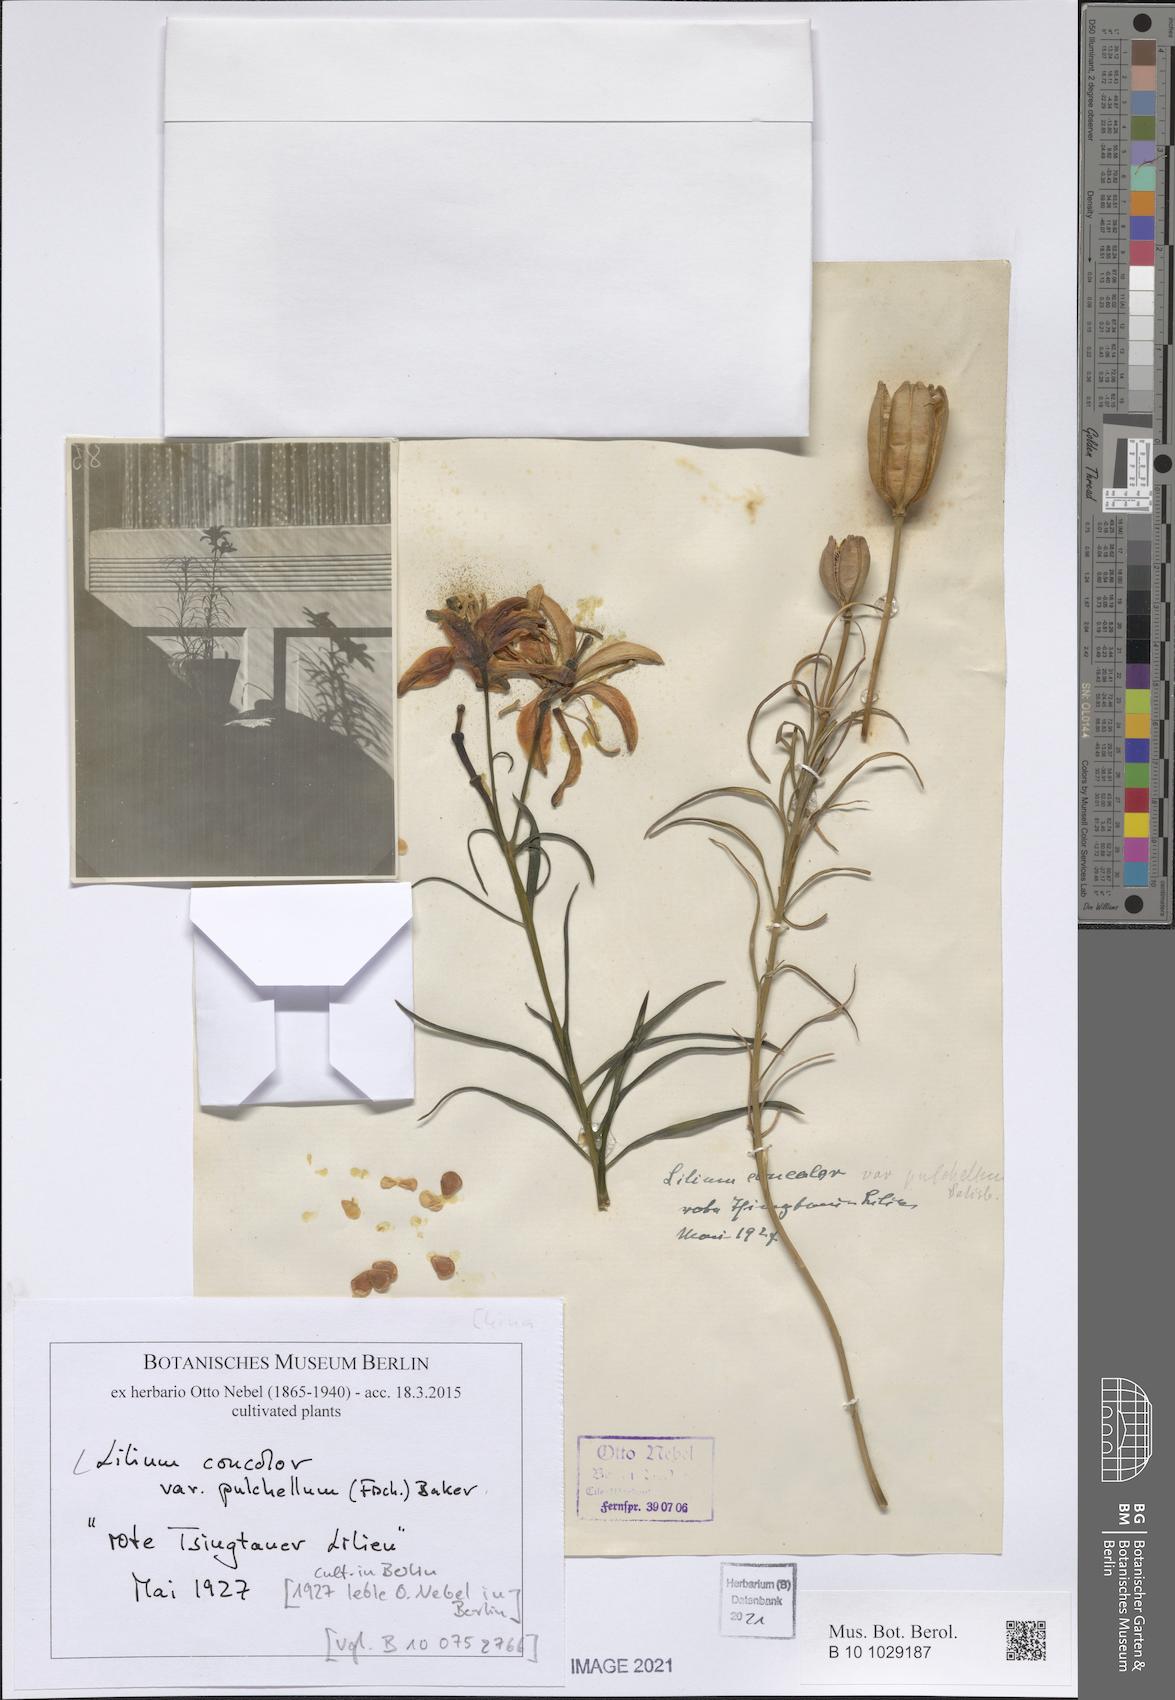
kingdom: Plantae
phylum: Tracheophyta
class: Liliopsida
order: Liliales
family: Liliaceae
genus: Lilium
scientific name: Lilium concolor
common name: Morning-star lily
